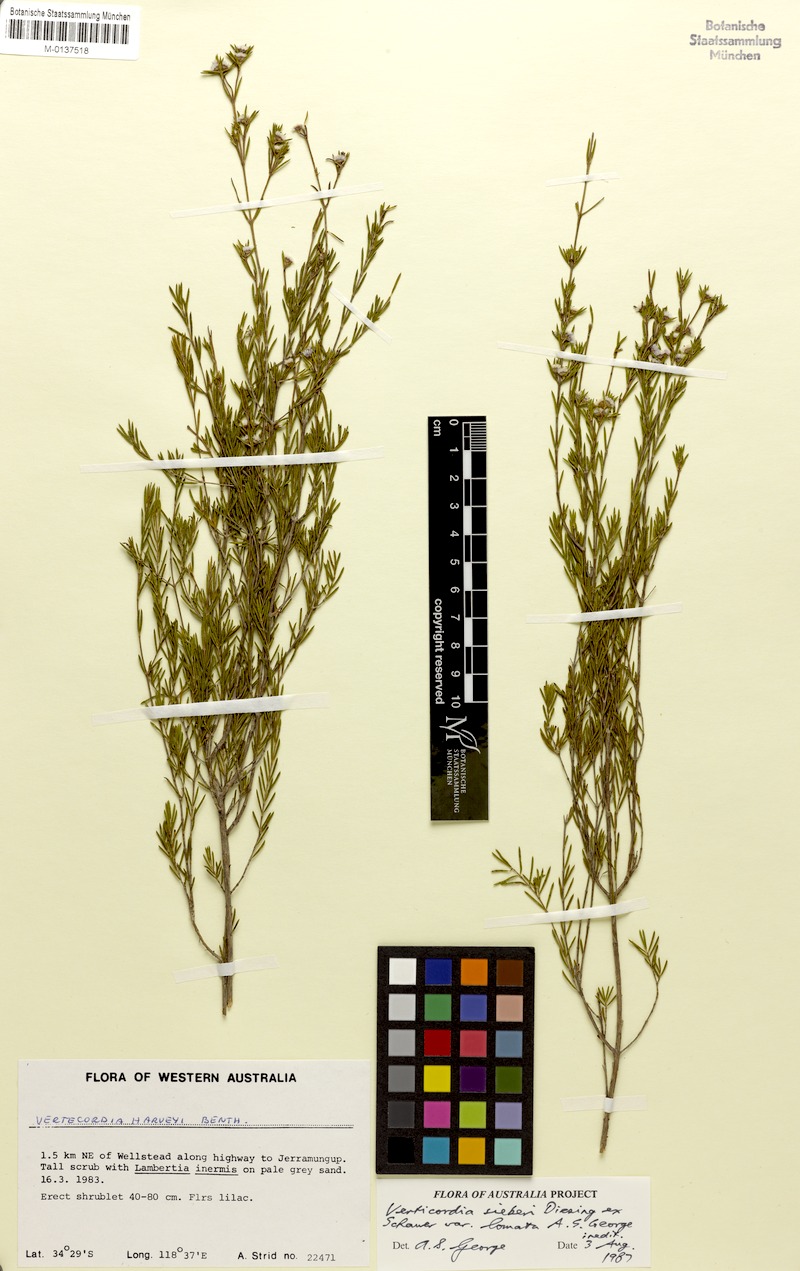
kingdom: Plantae
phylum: Tracheophyta
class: Magnoliopsida
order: Myrtales
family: Myrtaceae
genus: Verticordia
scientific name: Verticordia sieberi
